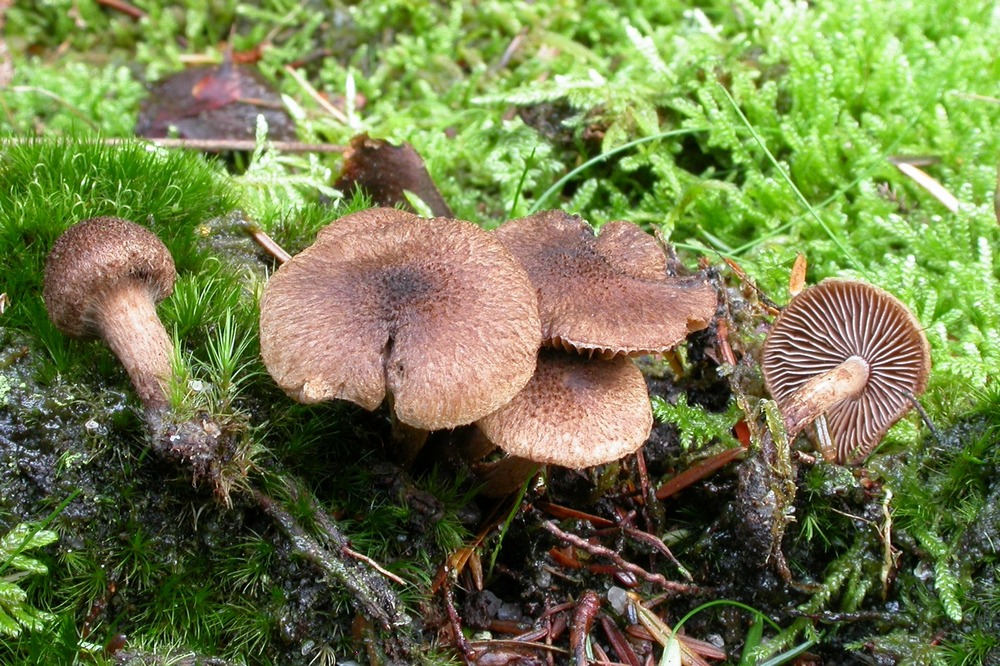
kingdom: Fungi
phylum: Basidiomycota
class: Agaricomycetes
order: Agaricales
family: Inocybaceae
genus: Inocybe
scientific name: Inocybe lanuginosa
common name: uldskællet trævlhat
